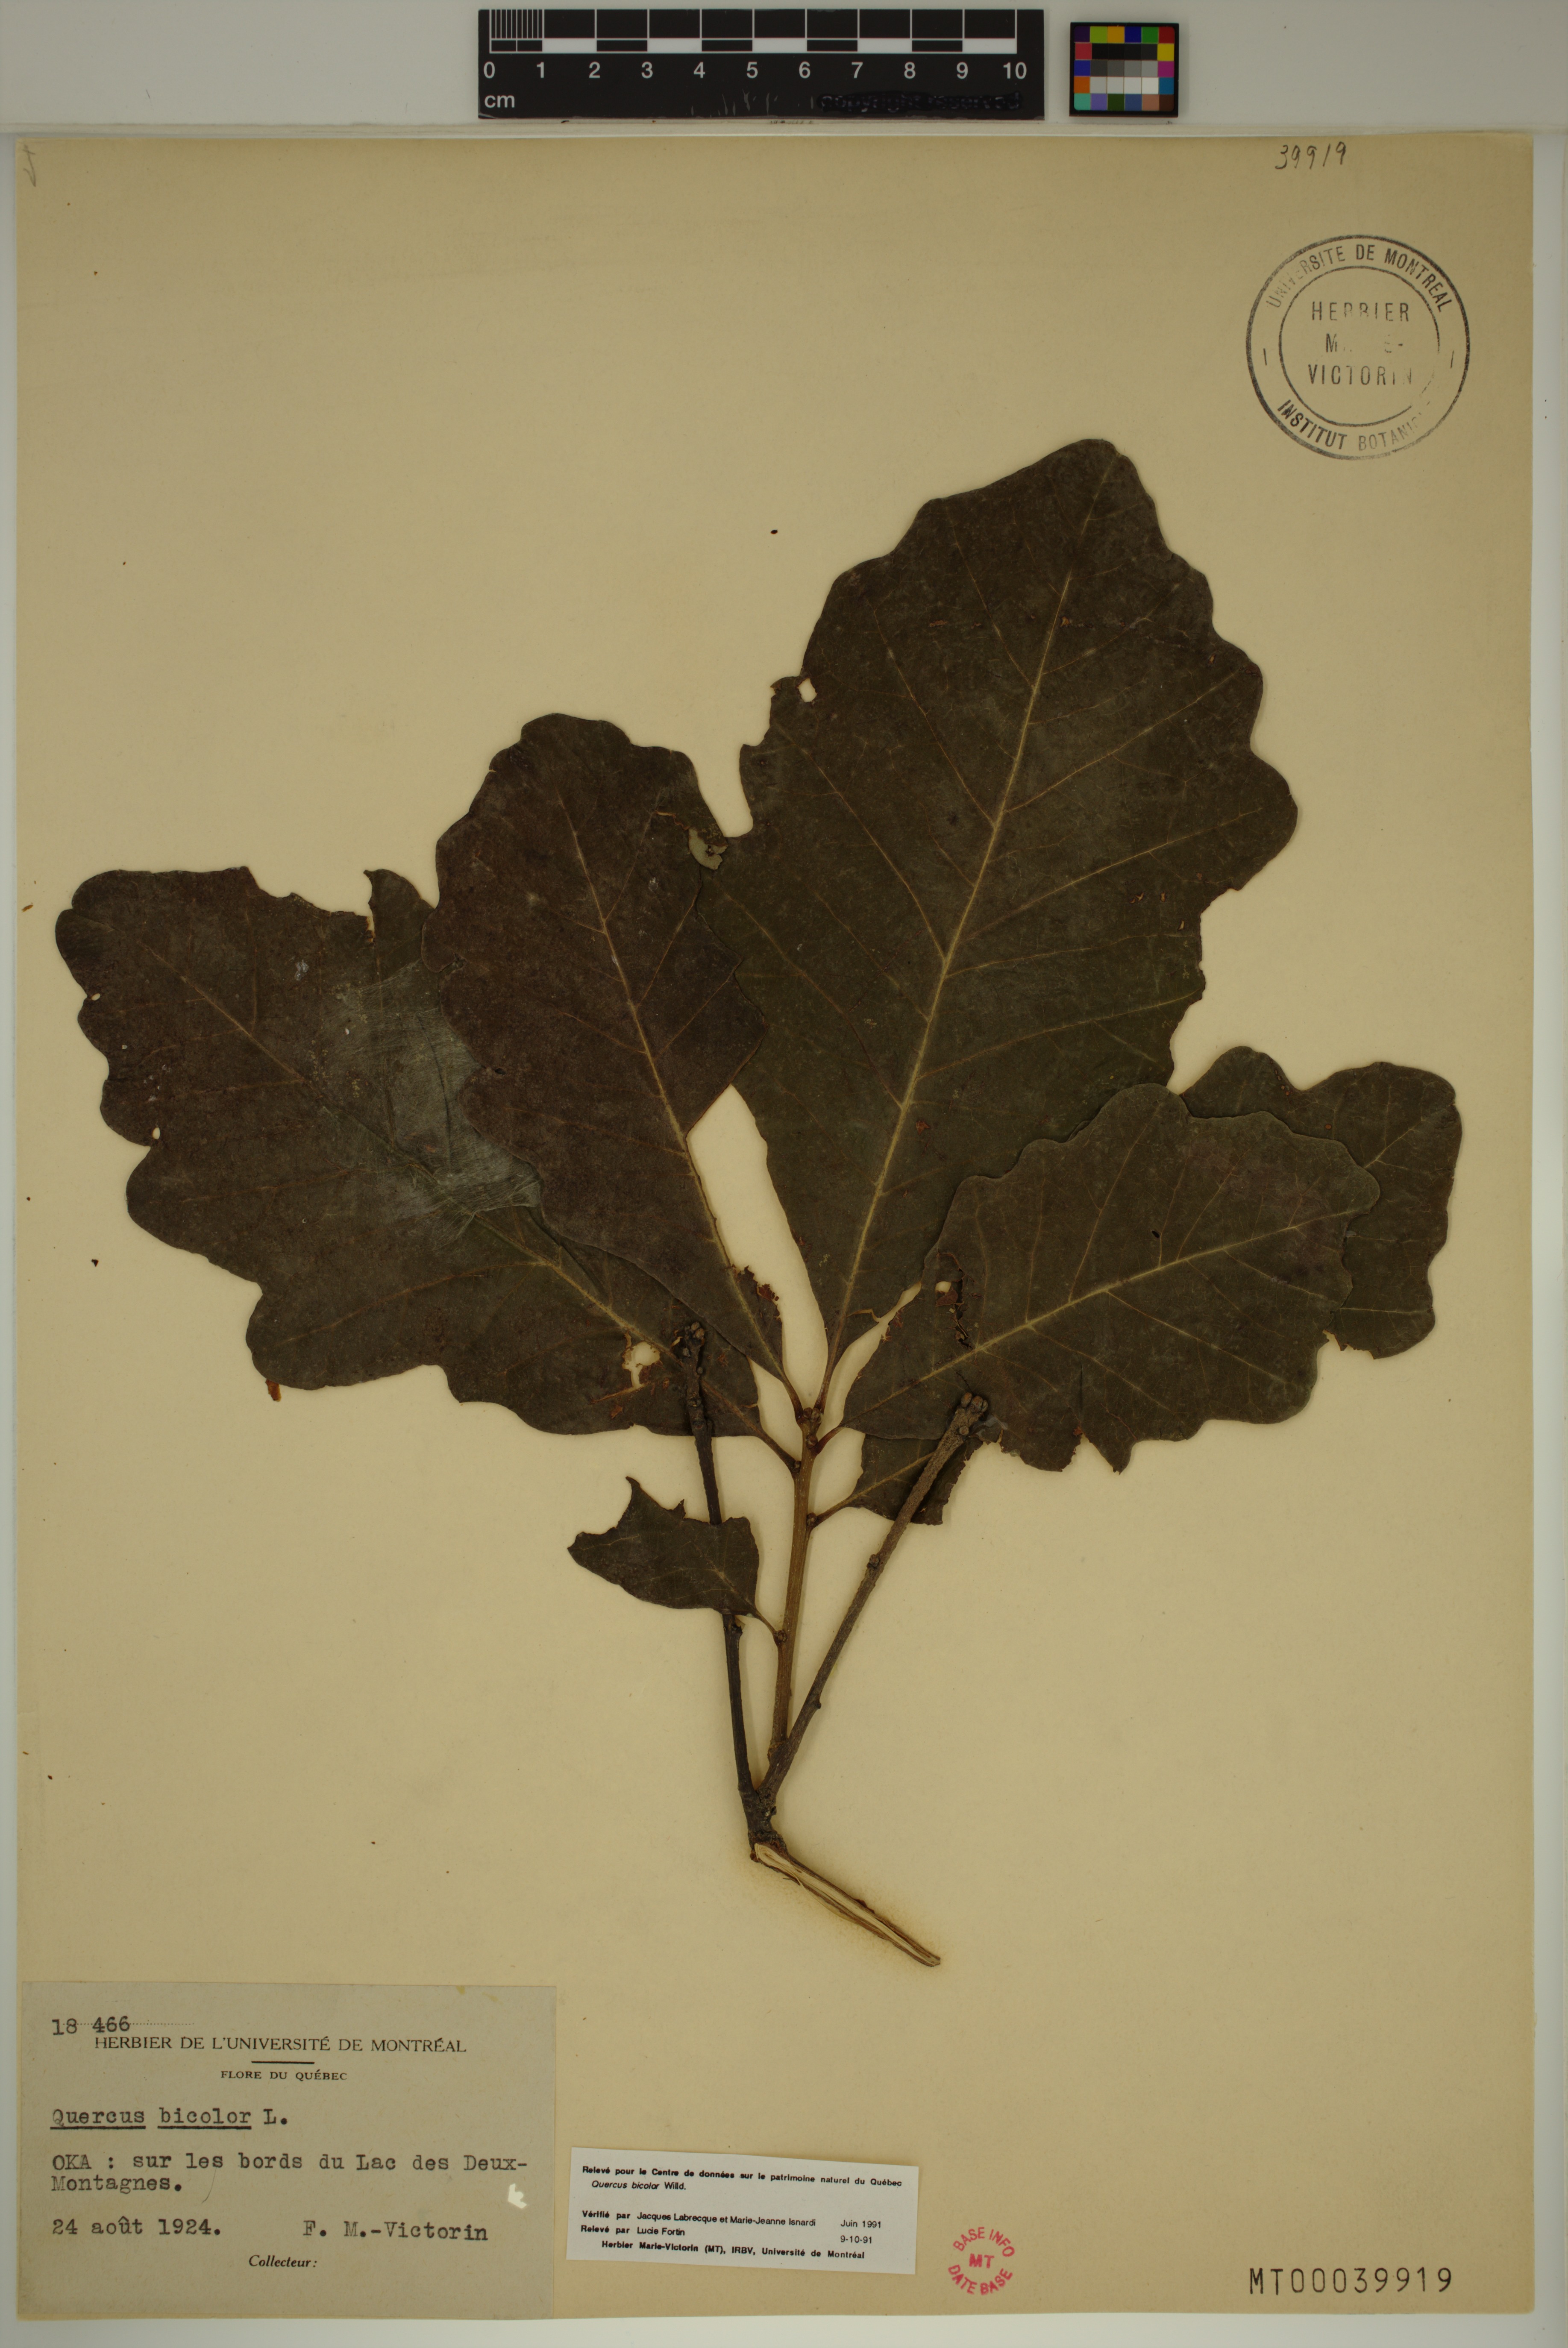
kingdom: Plantae
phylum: Tracheophyta
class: Magnoliopsida
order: Fagales
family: Fagaceae
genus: Quercus
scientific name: Quercus bicolor
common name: Swamp white oak
